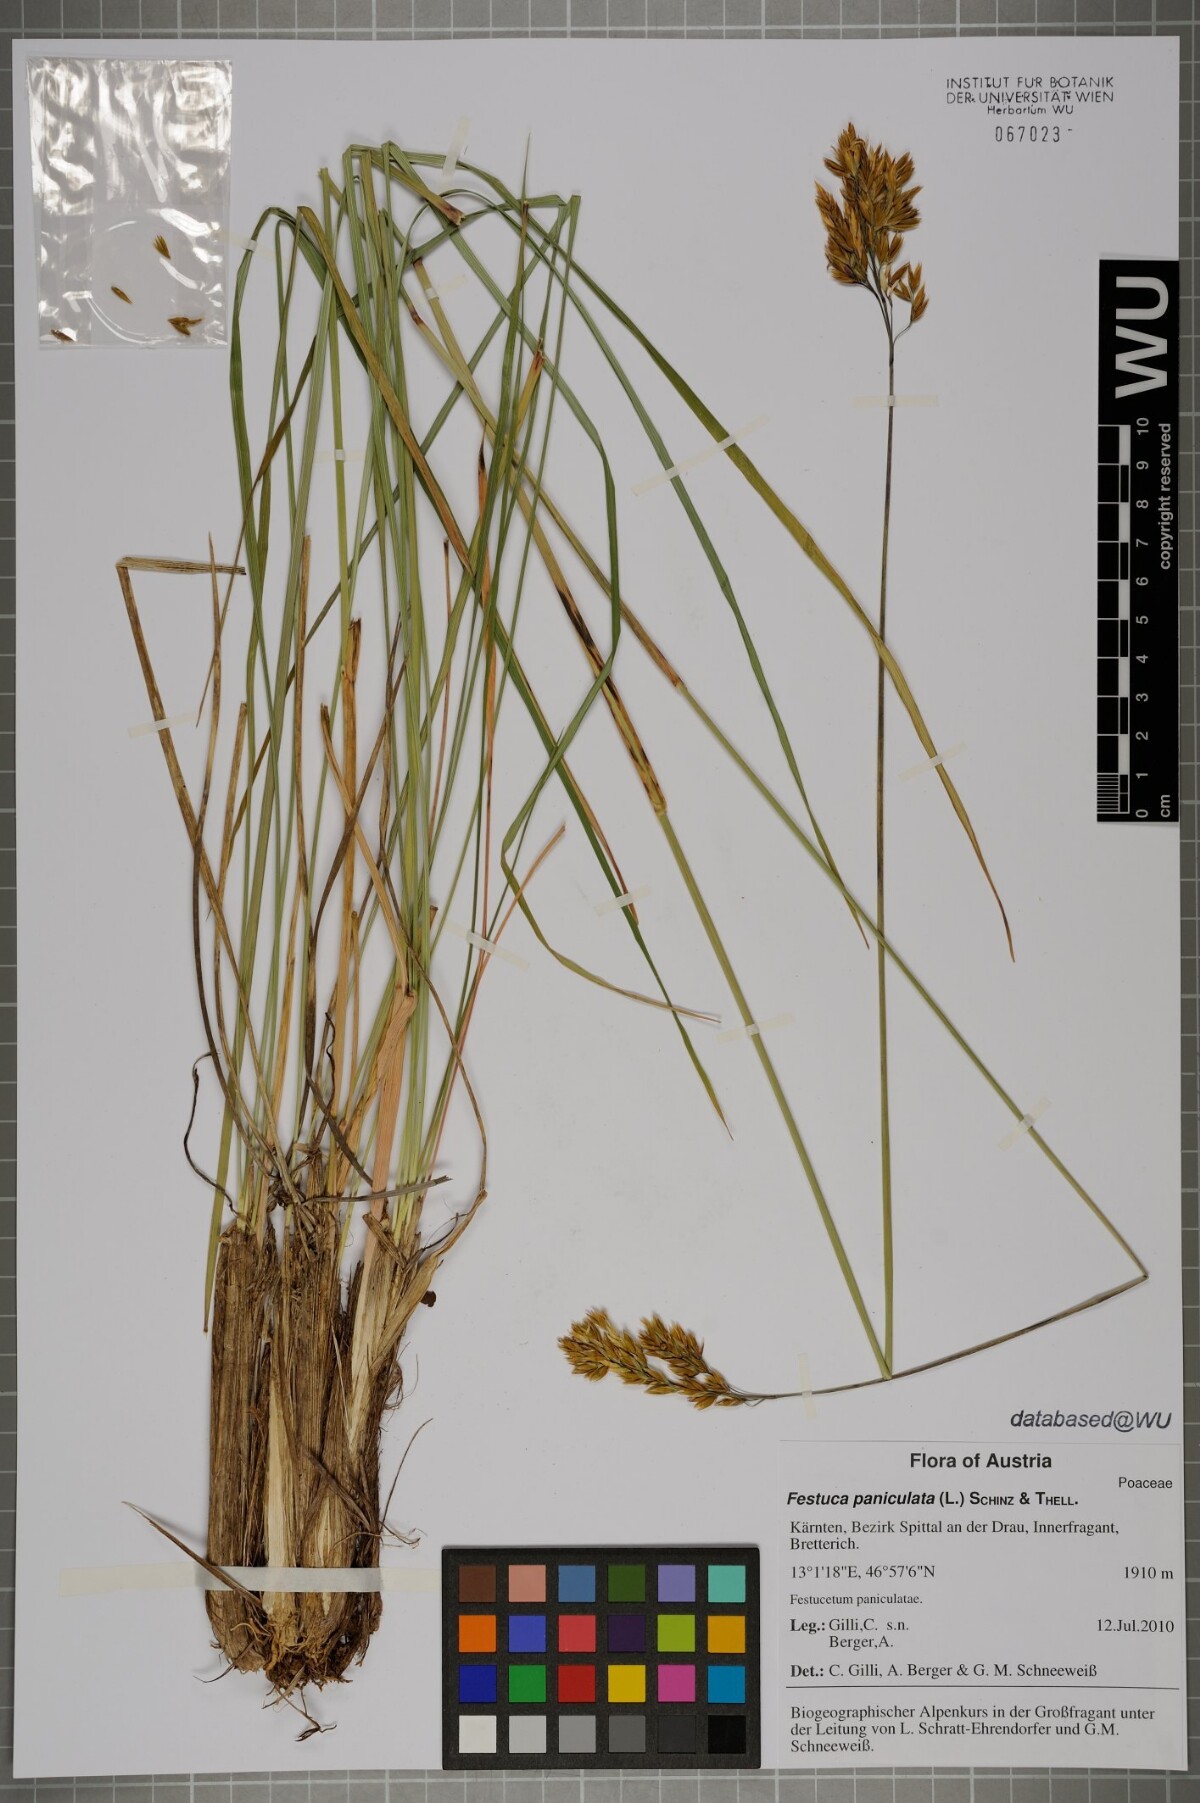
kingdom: Plantae
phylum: Tracheophyta
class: Liliopsida
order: Poales
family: Poaceae
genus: Patzkea
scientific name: Patzkea paniculata
